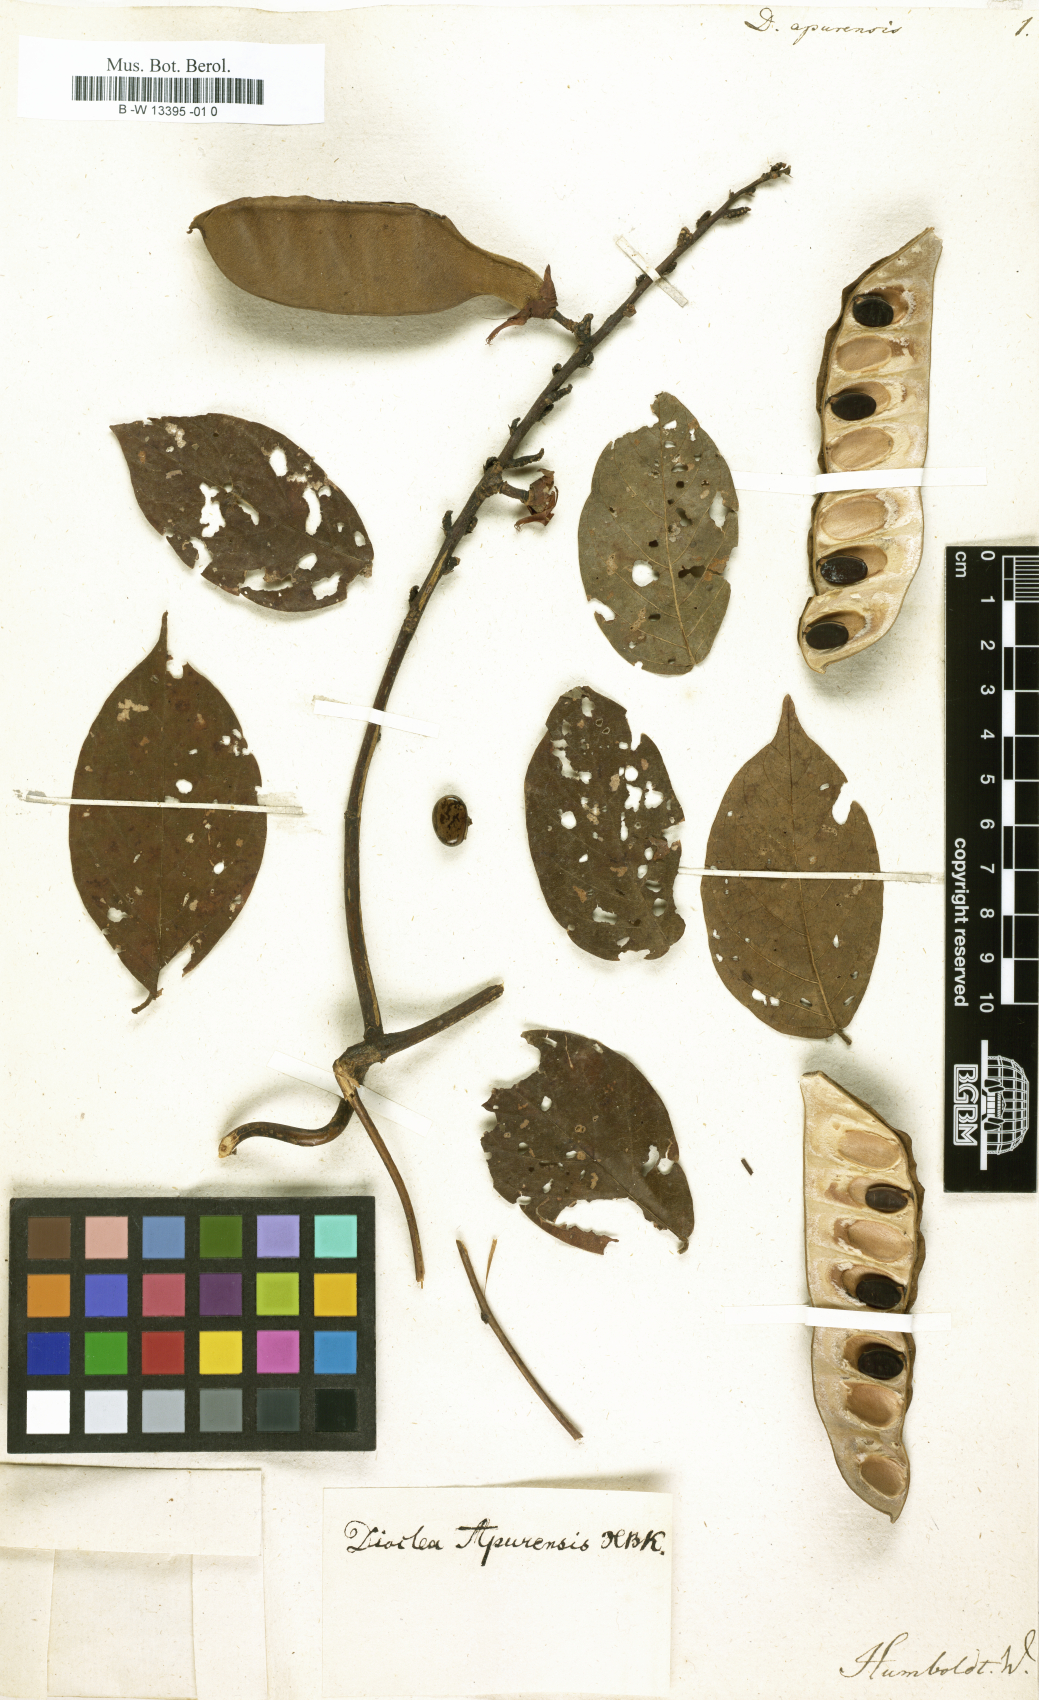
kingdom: Plantae
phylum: Tracheophyta
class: Magnoliopsida
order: Fabales
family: Fabaceae
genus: Dolichos
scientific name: Dolichos
